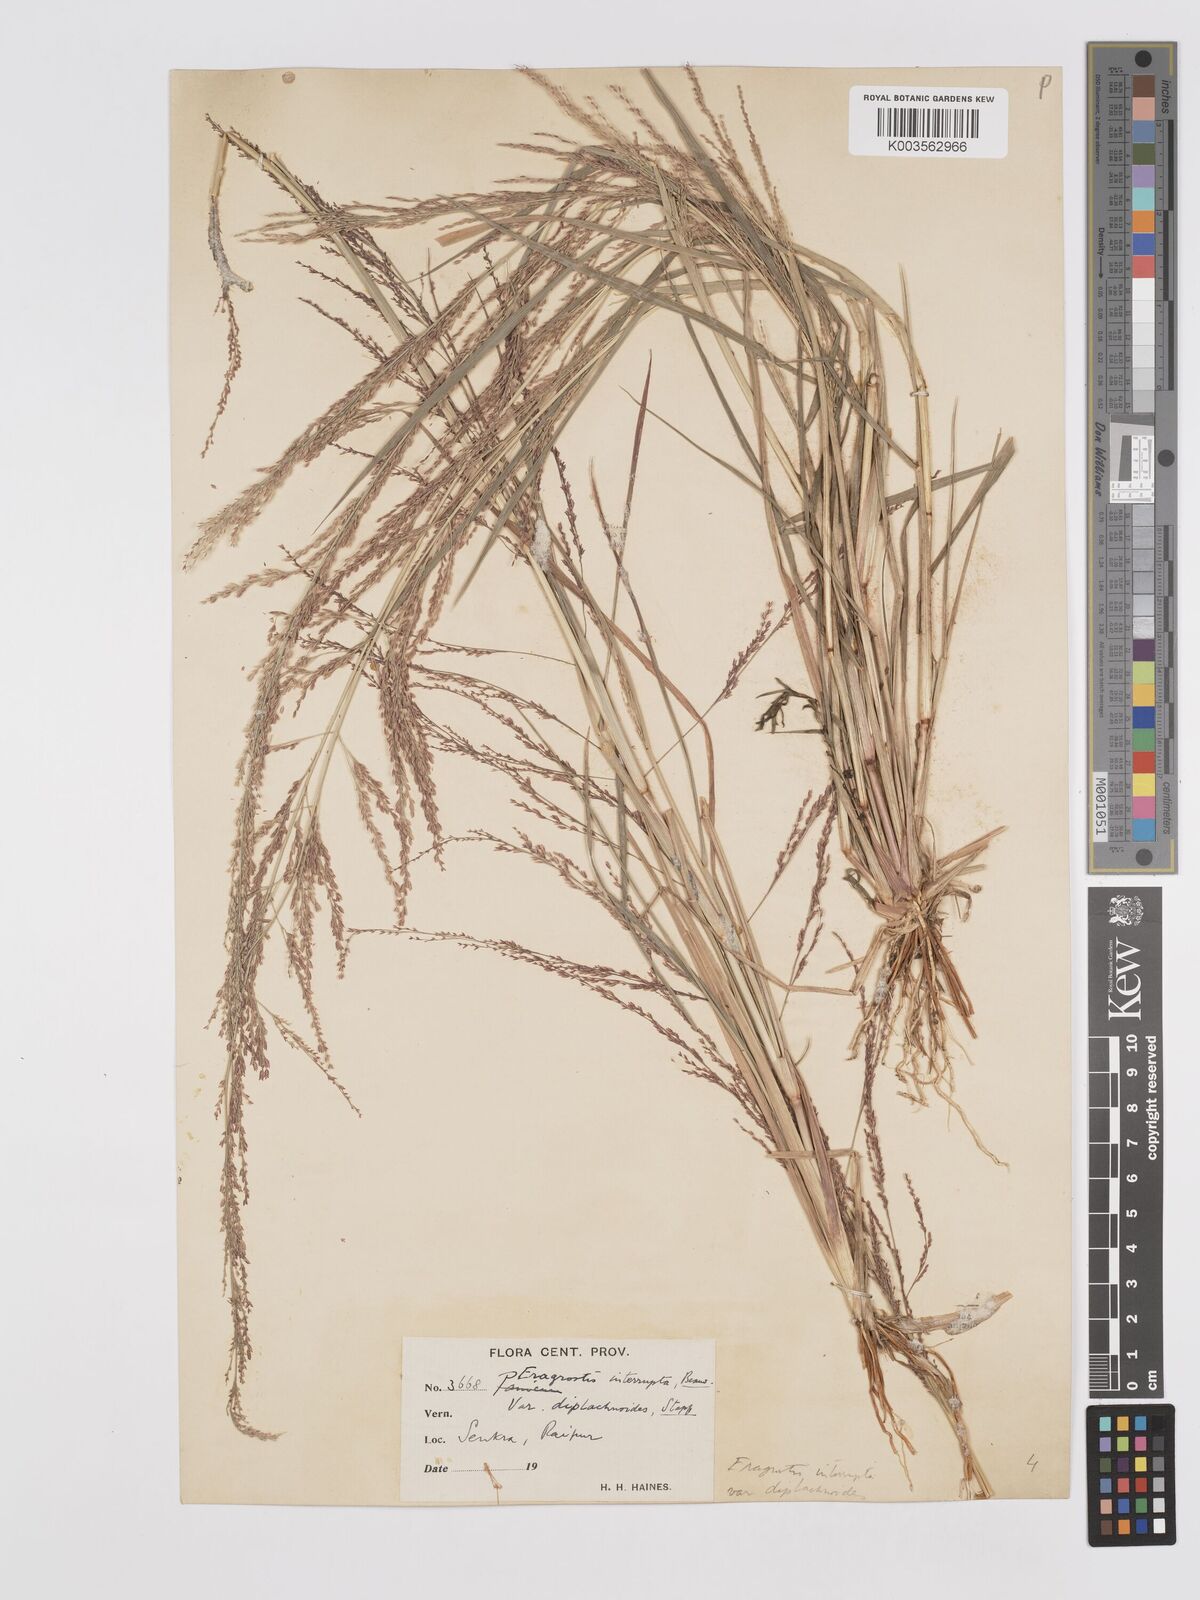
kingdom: Plantae
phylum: Tracheophyta
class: Liliopsida
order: Poales
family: Poaceae
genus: Eragrostis
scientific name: Eragrostis japonica
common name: Pond lovegrass
